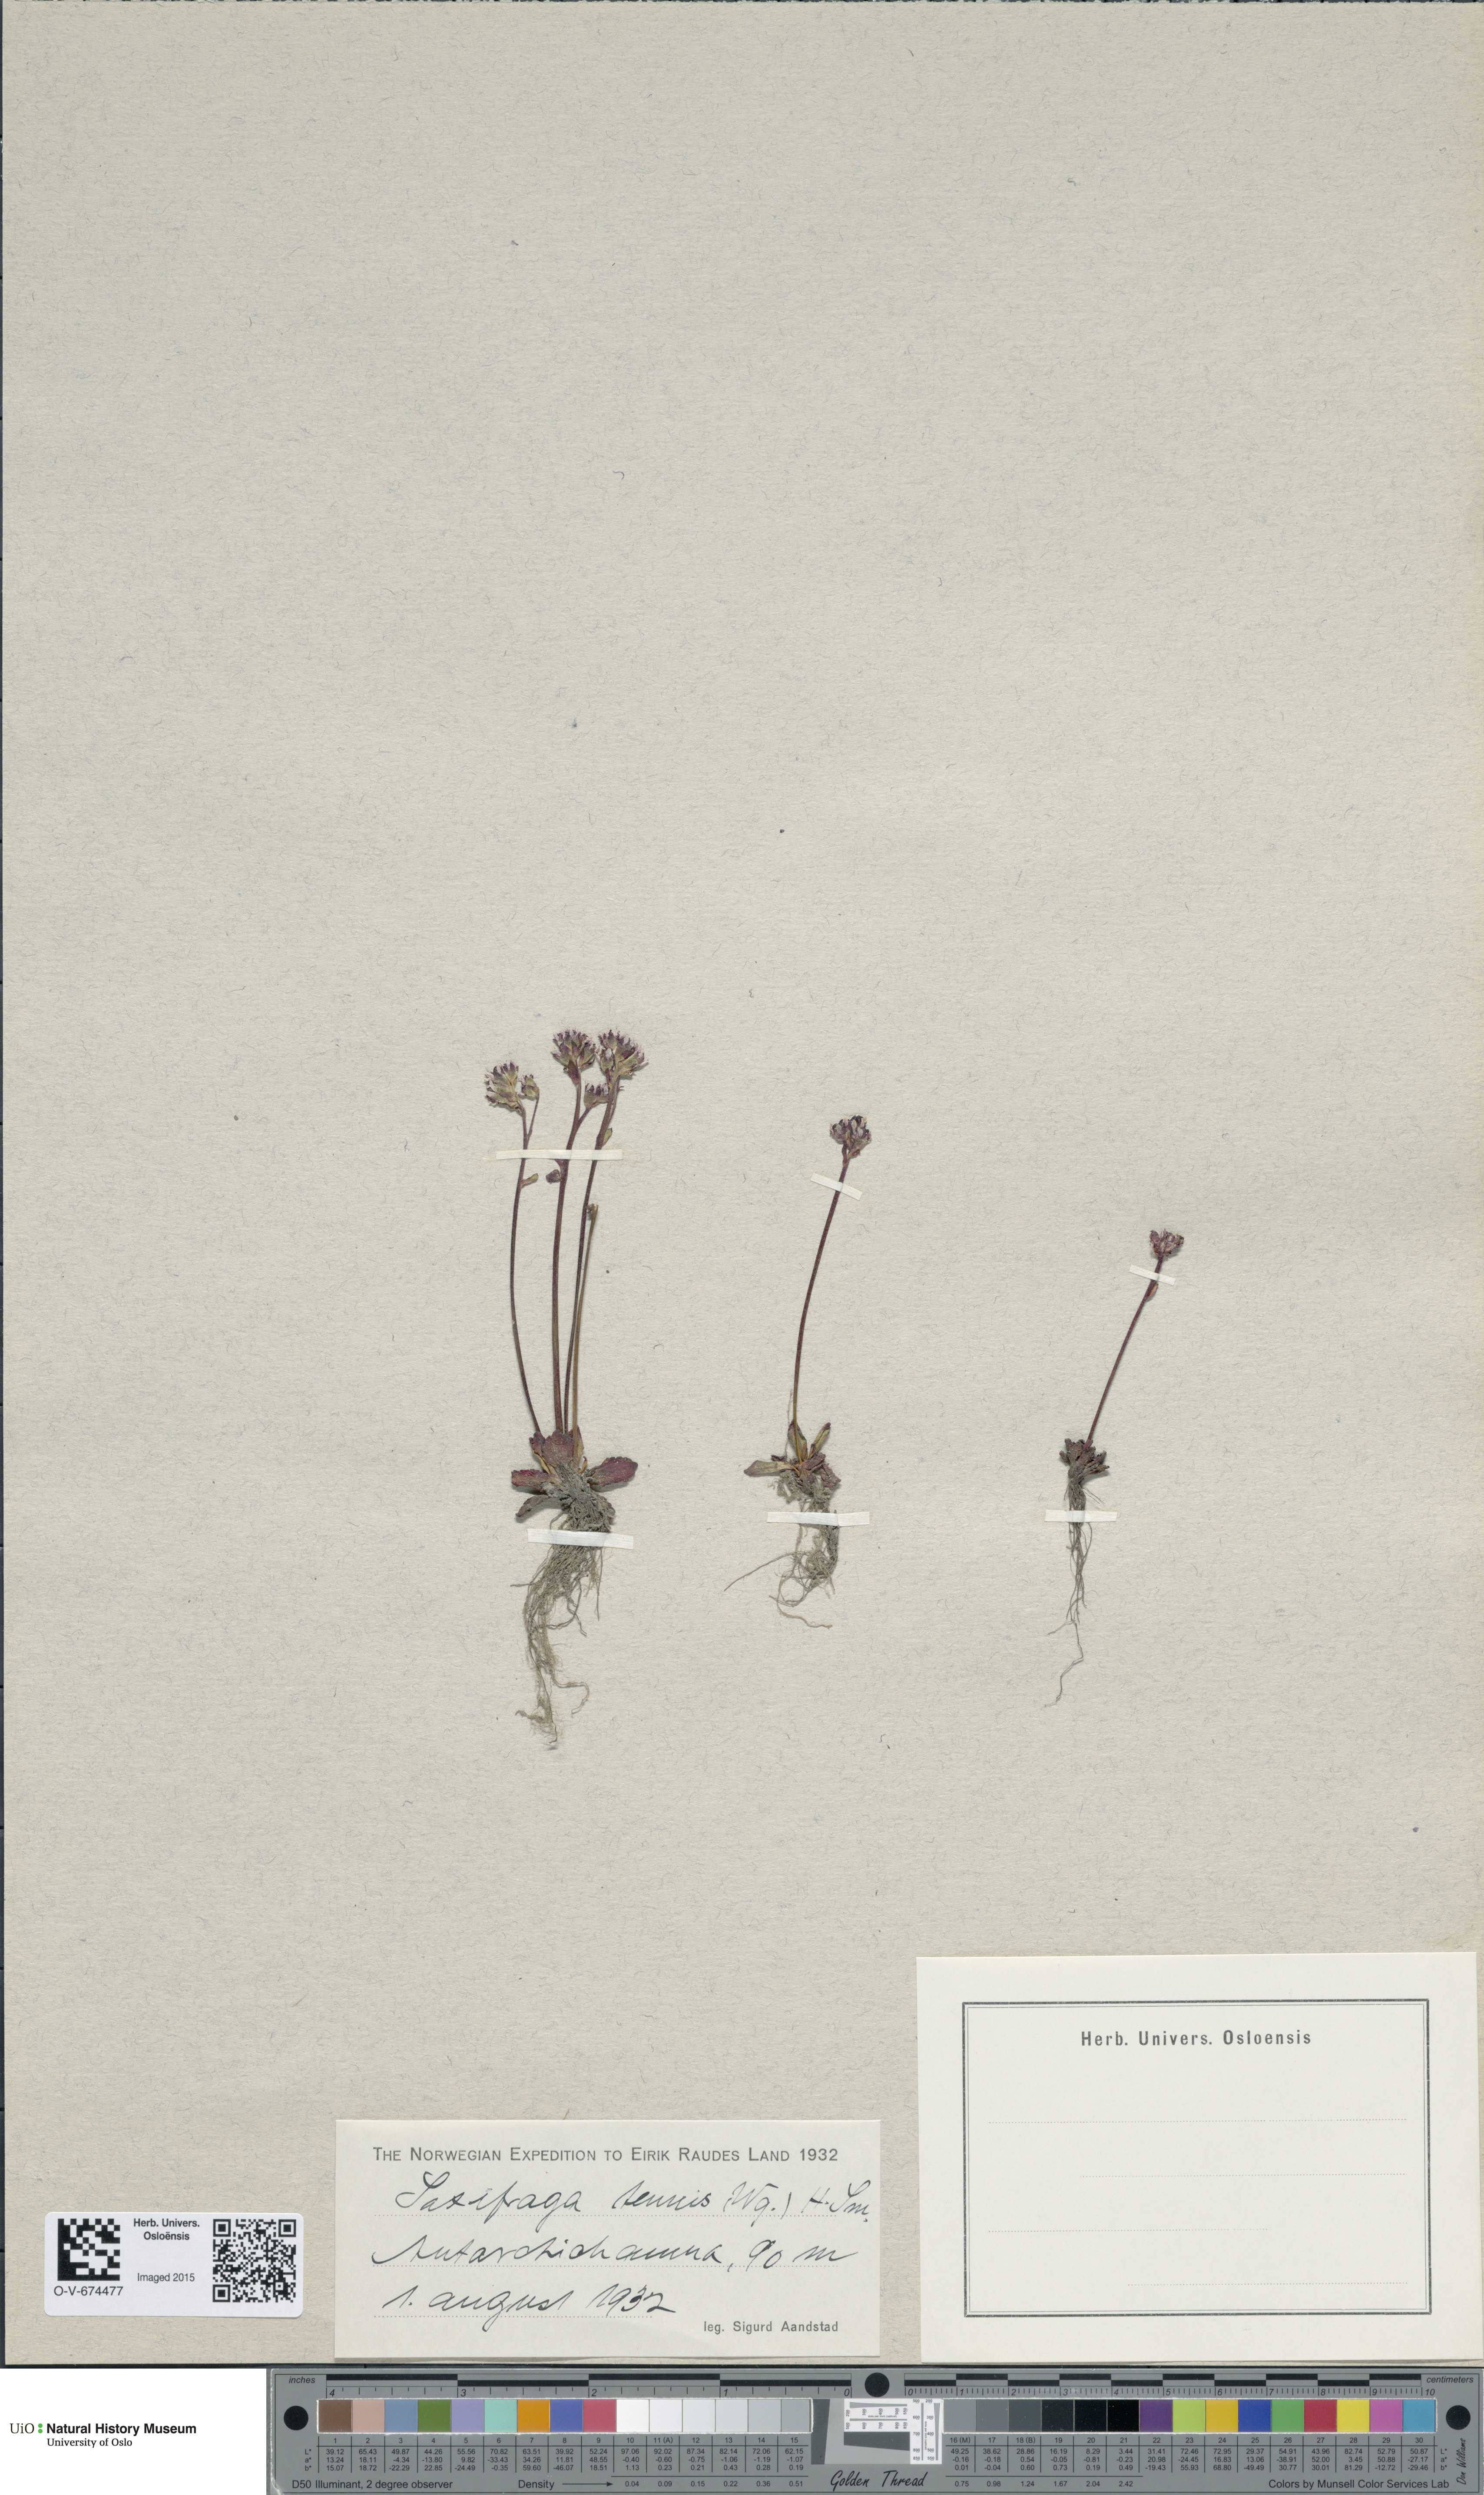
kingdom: Plantae
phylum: Tracheophyta
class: Magnoliopsida
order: Saxifragales
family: Saxifragaceae
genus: Micranthes
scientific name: Micranthes tenuis
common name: Ottertail pass saxifrage
